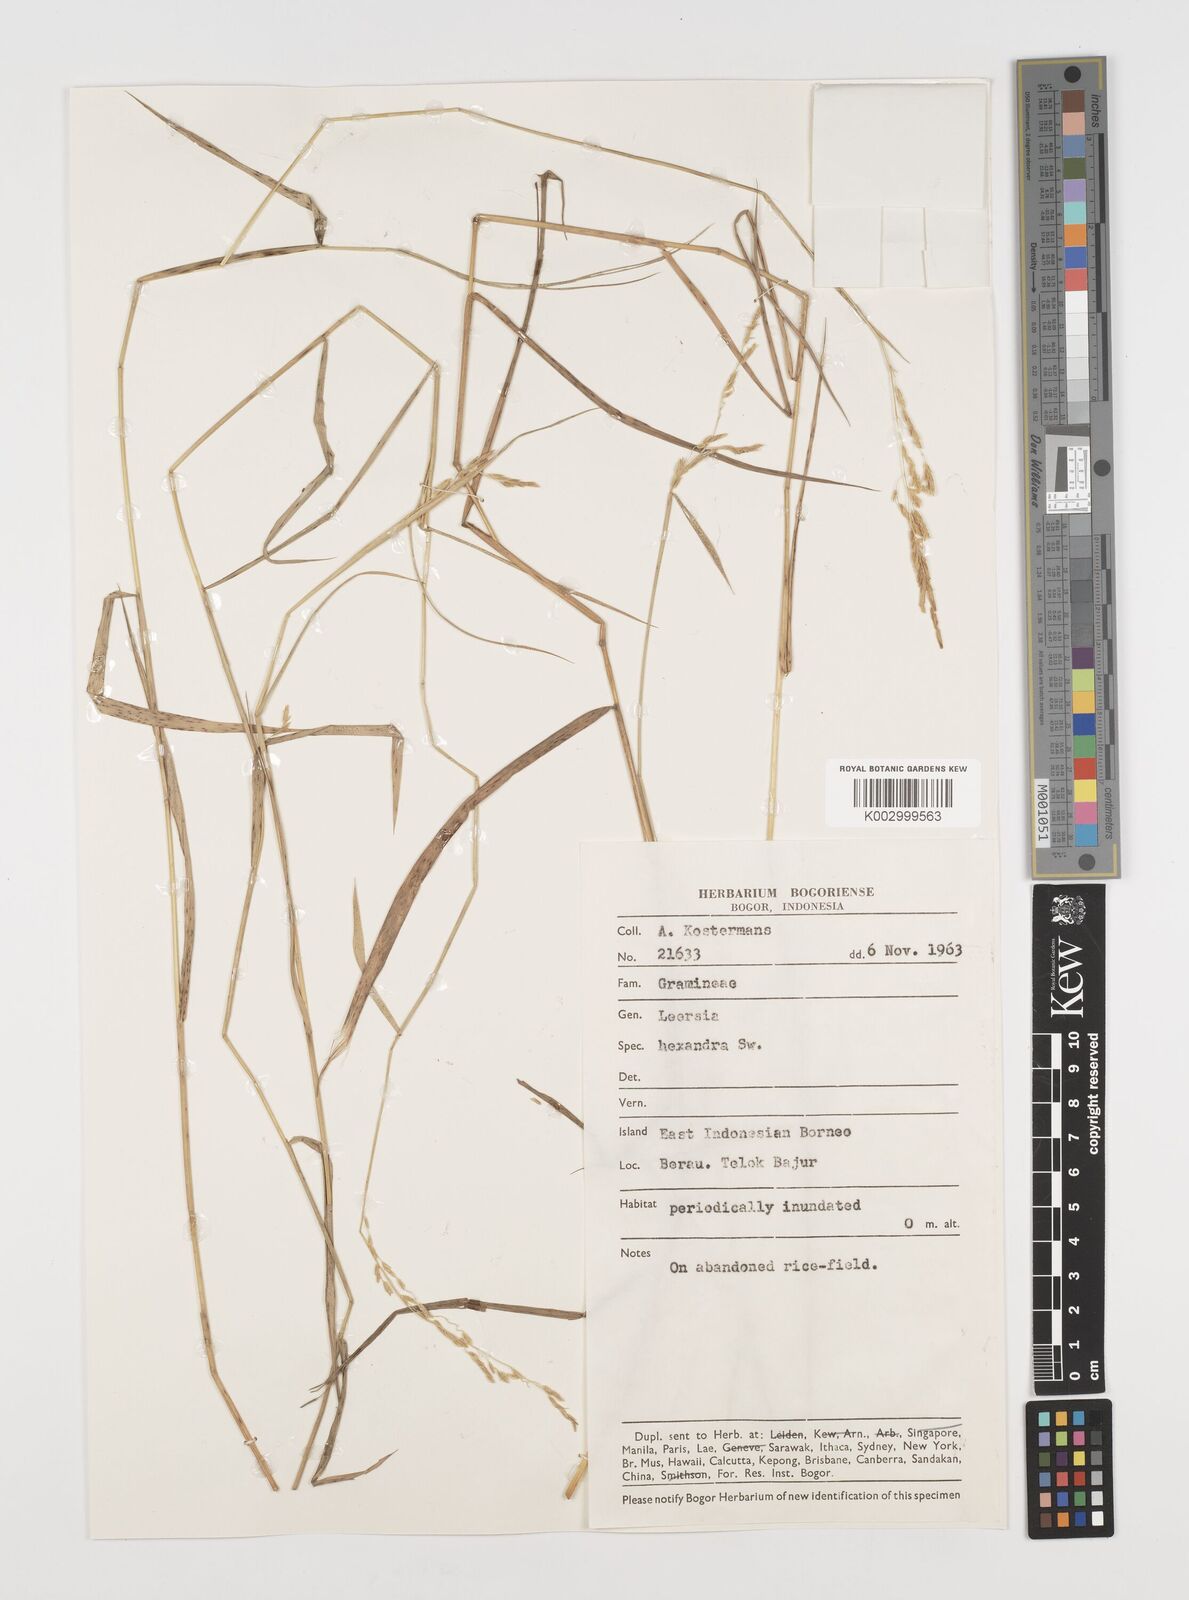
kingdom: Plantae
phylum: Tracheophyta
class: Liliopsida
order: Poales
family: Poaceae
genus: Leersia
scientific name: Leersia hexandra
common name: Southern cut grass
